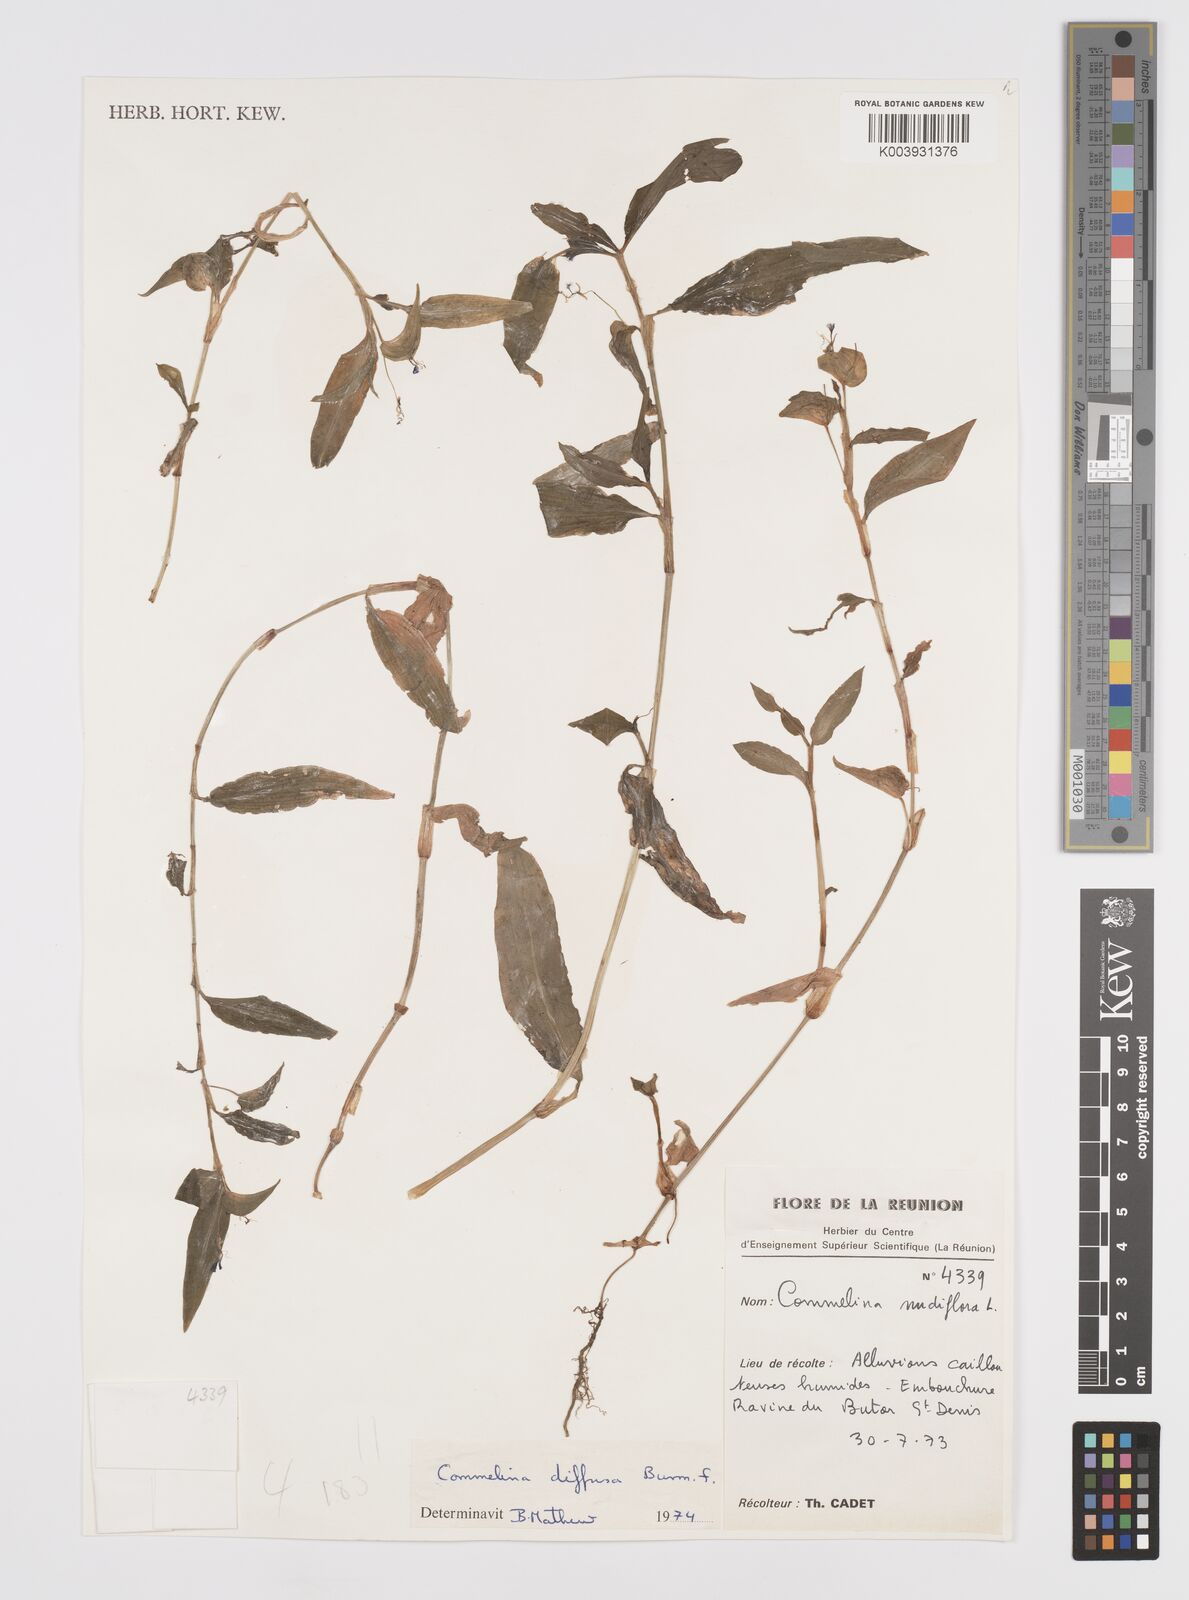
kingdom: Plantae
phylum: Tracheophyta
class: Liliopsida
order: Commelinales
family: Commelinaceae
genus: Murdannia
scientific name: Murdannia nudiflora
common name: Nakedstem dewflower
